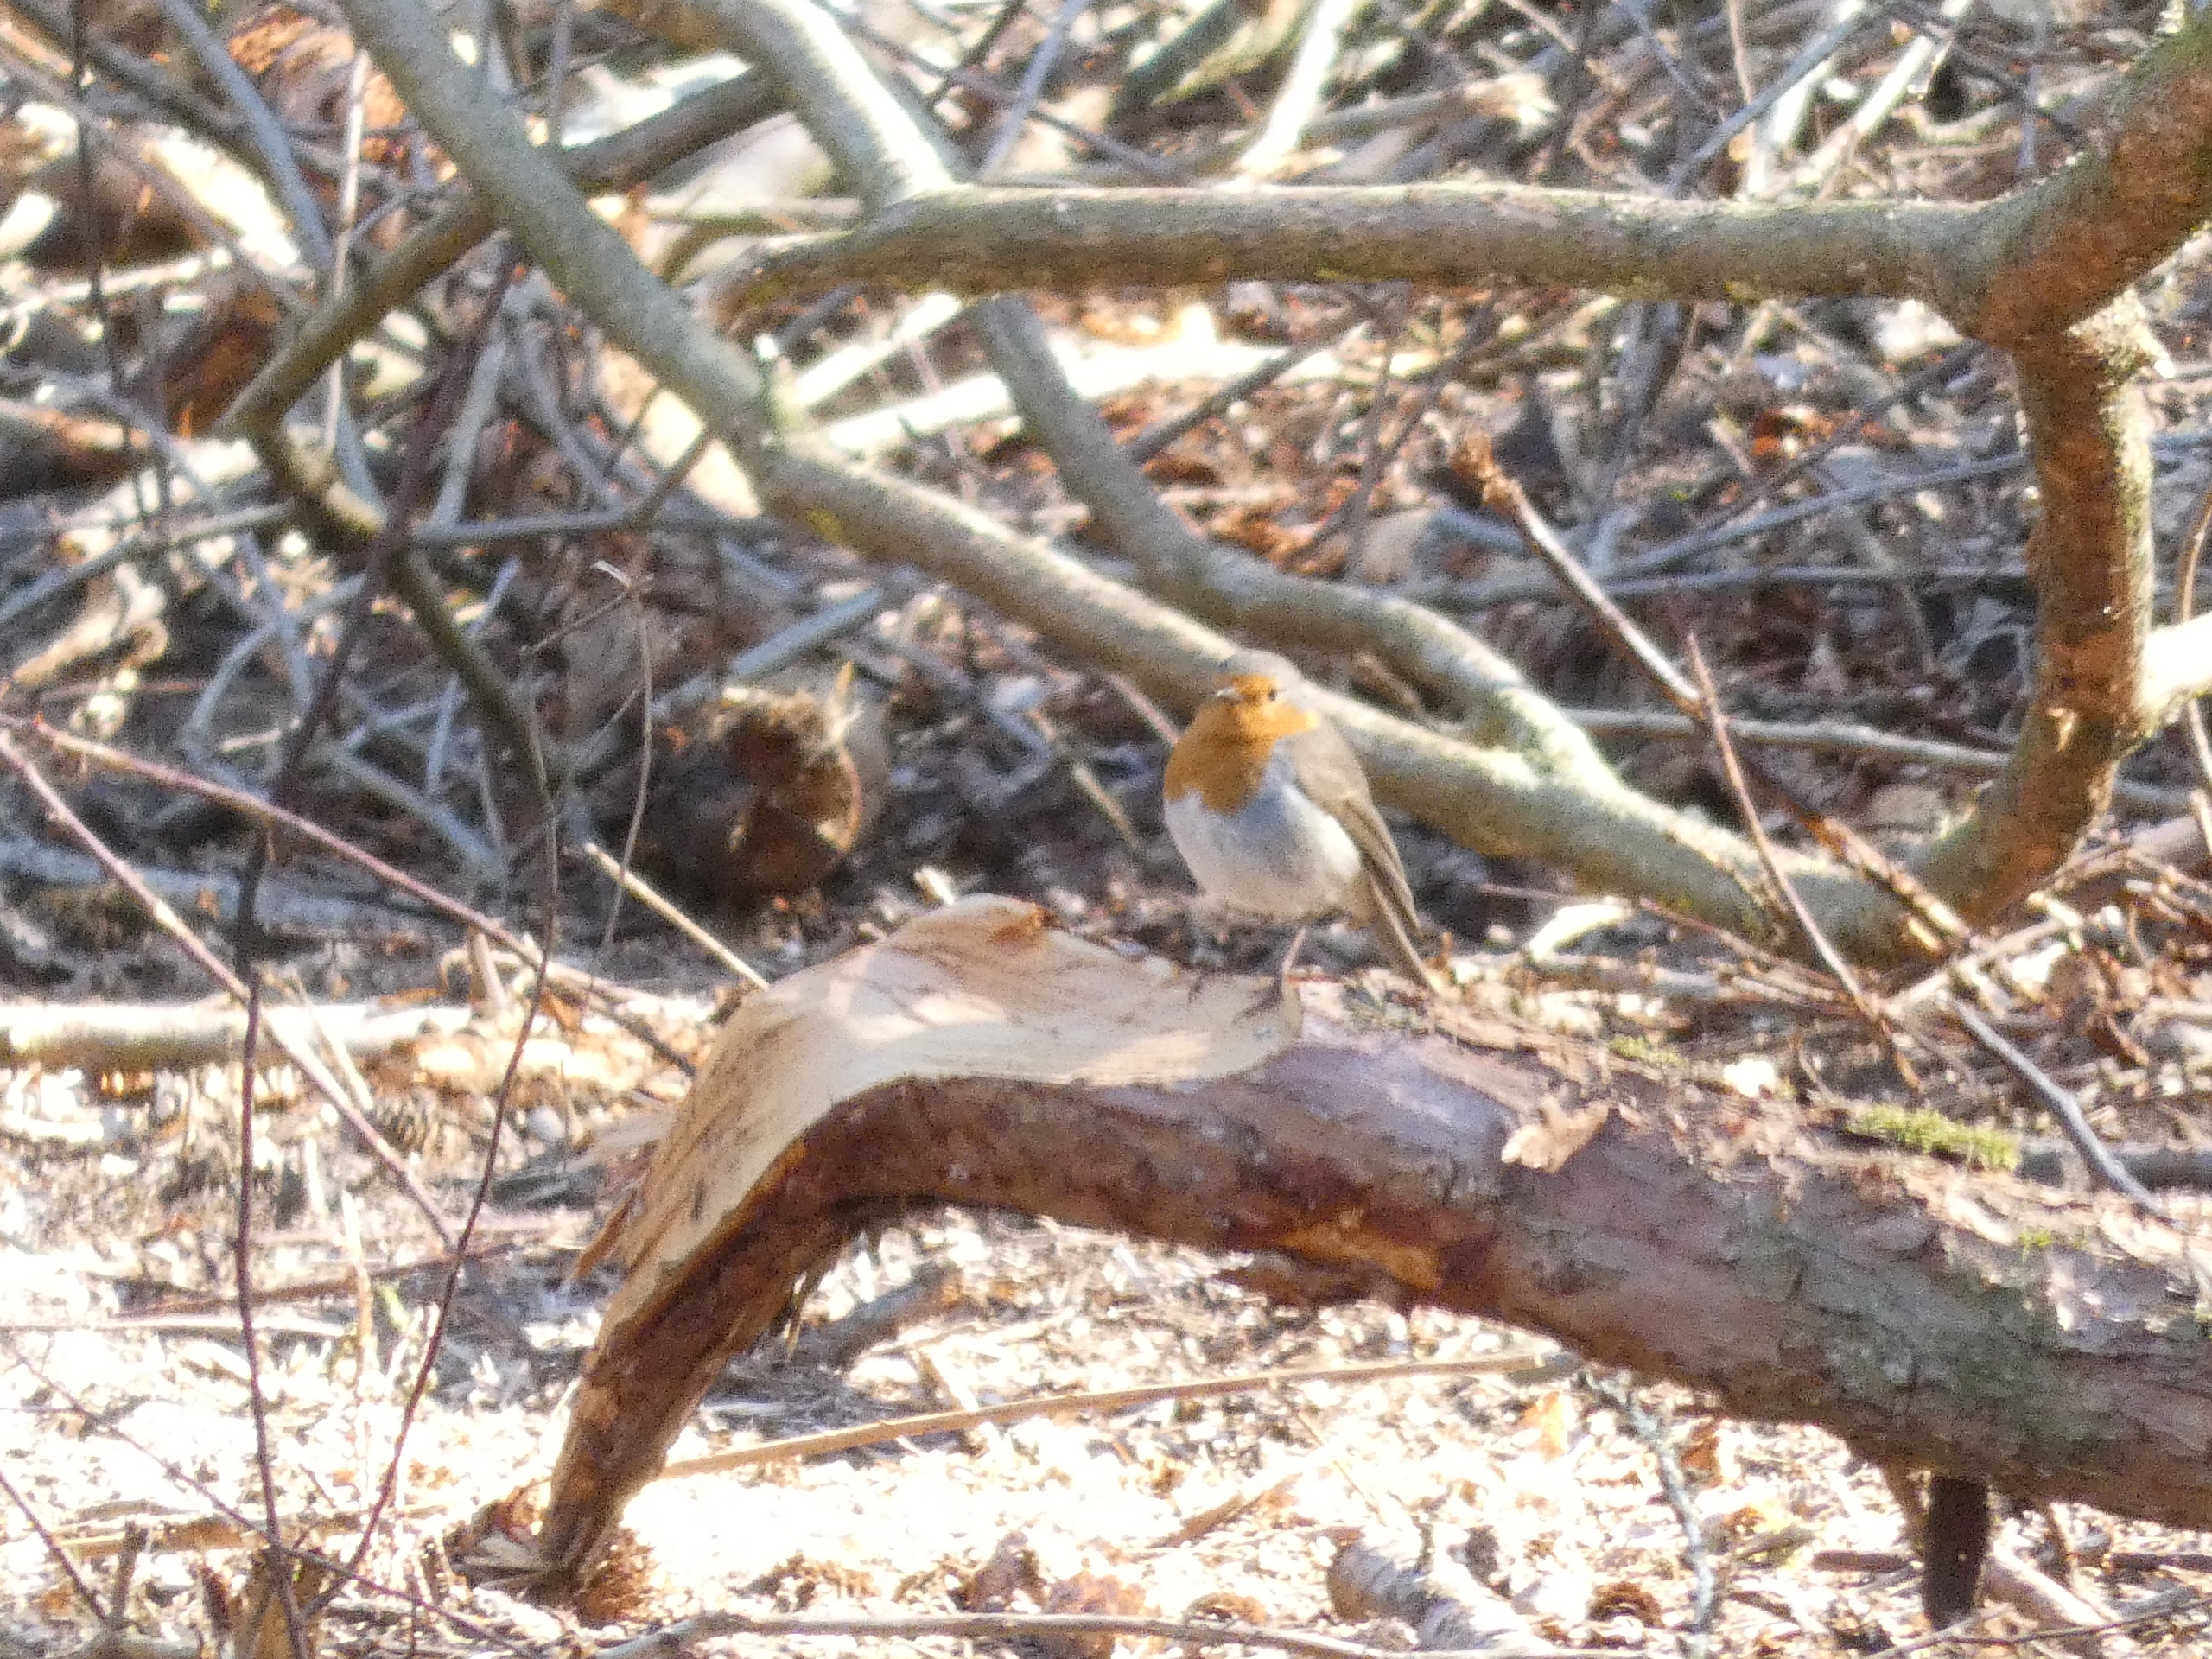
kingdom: Animalia
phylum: Chordata
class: Aves
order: Passeriformes
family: Muscicapidae
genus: Erithacus
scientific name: Erithacus rubecula
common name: Rødhals/rødkælk
